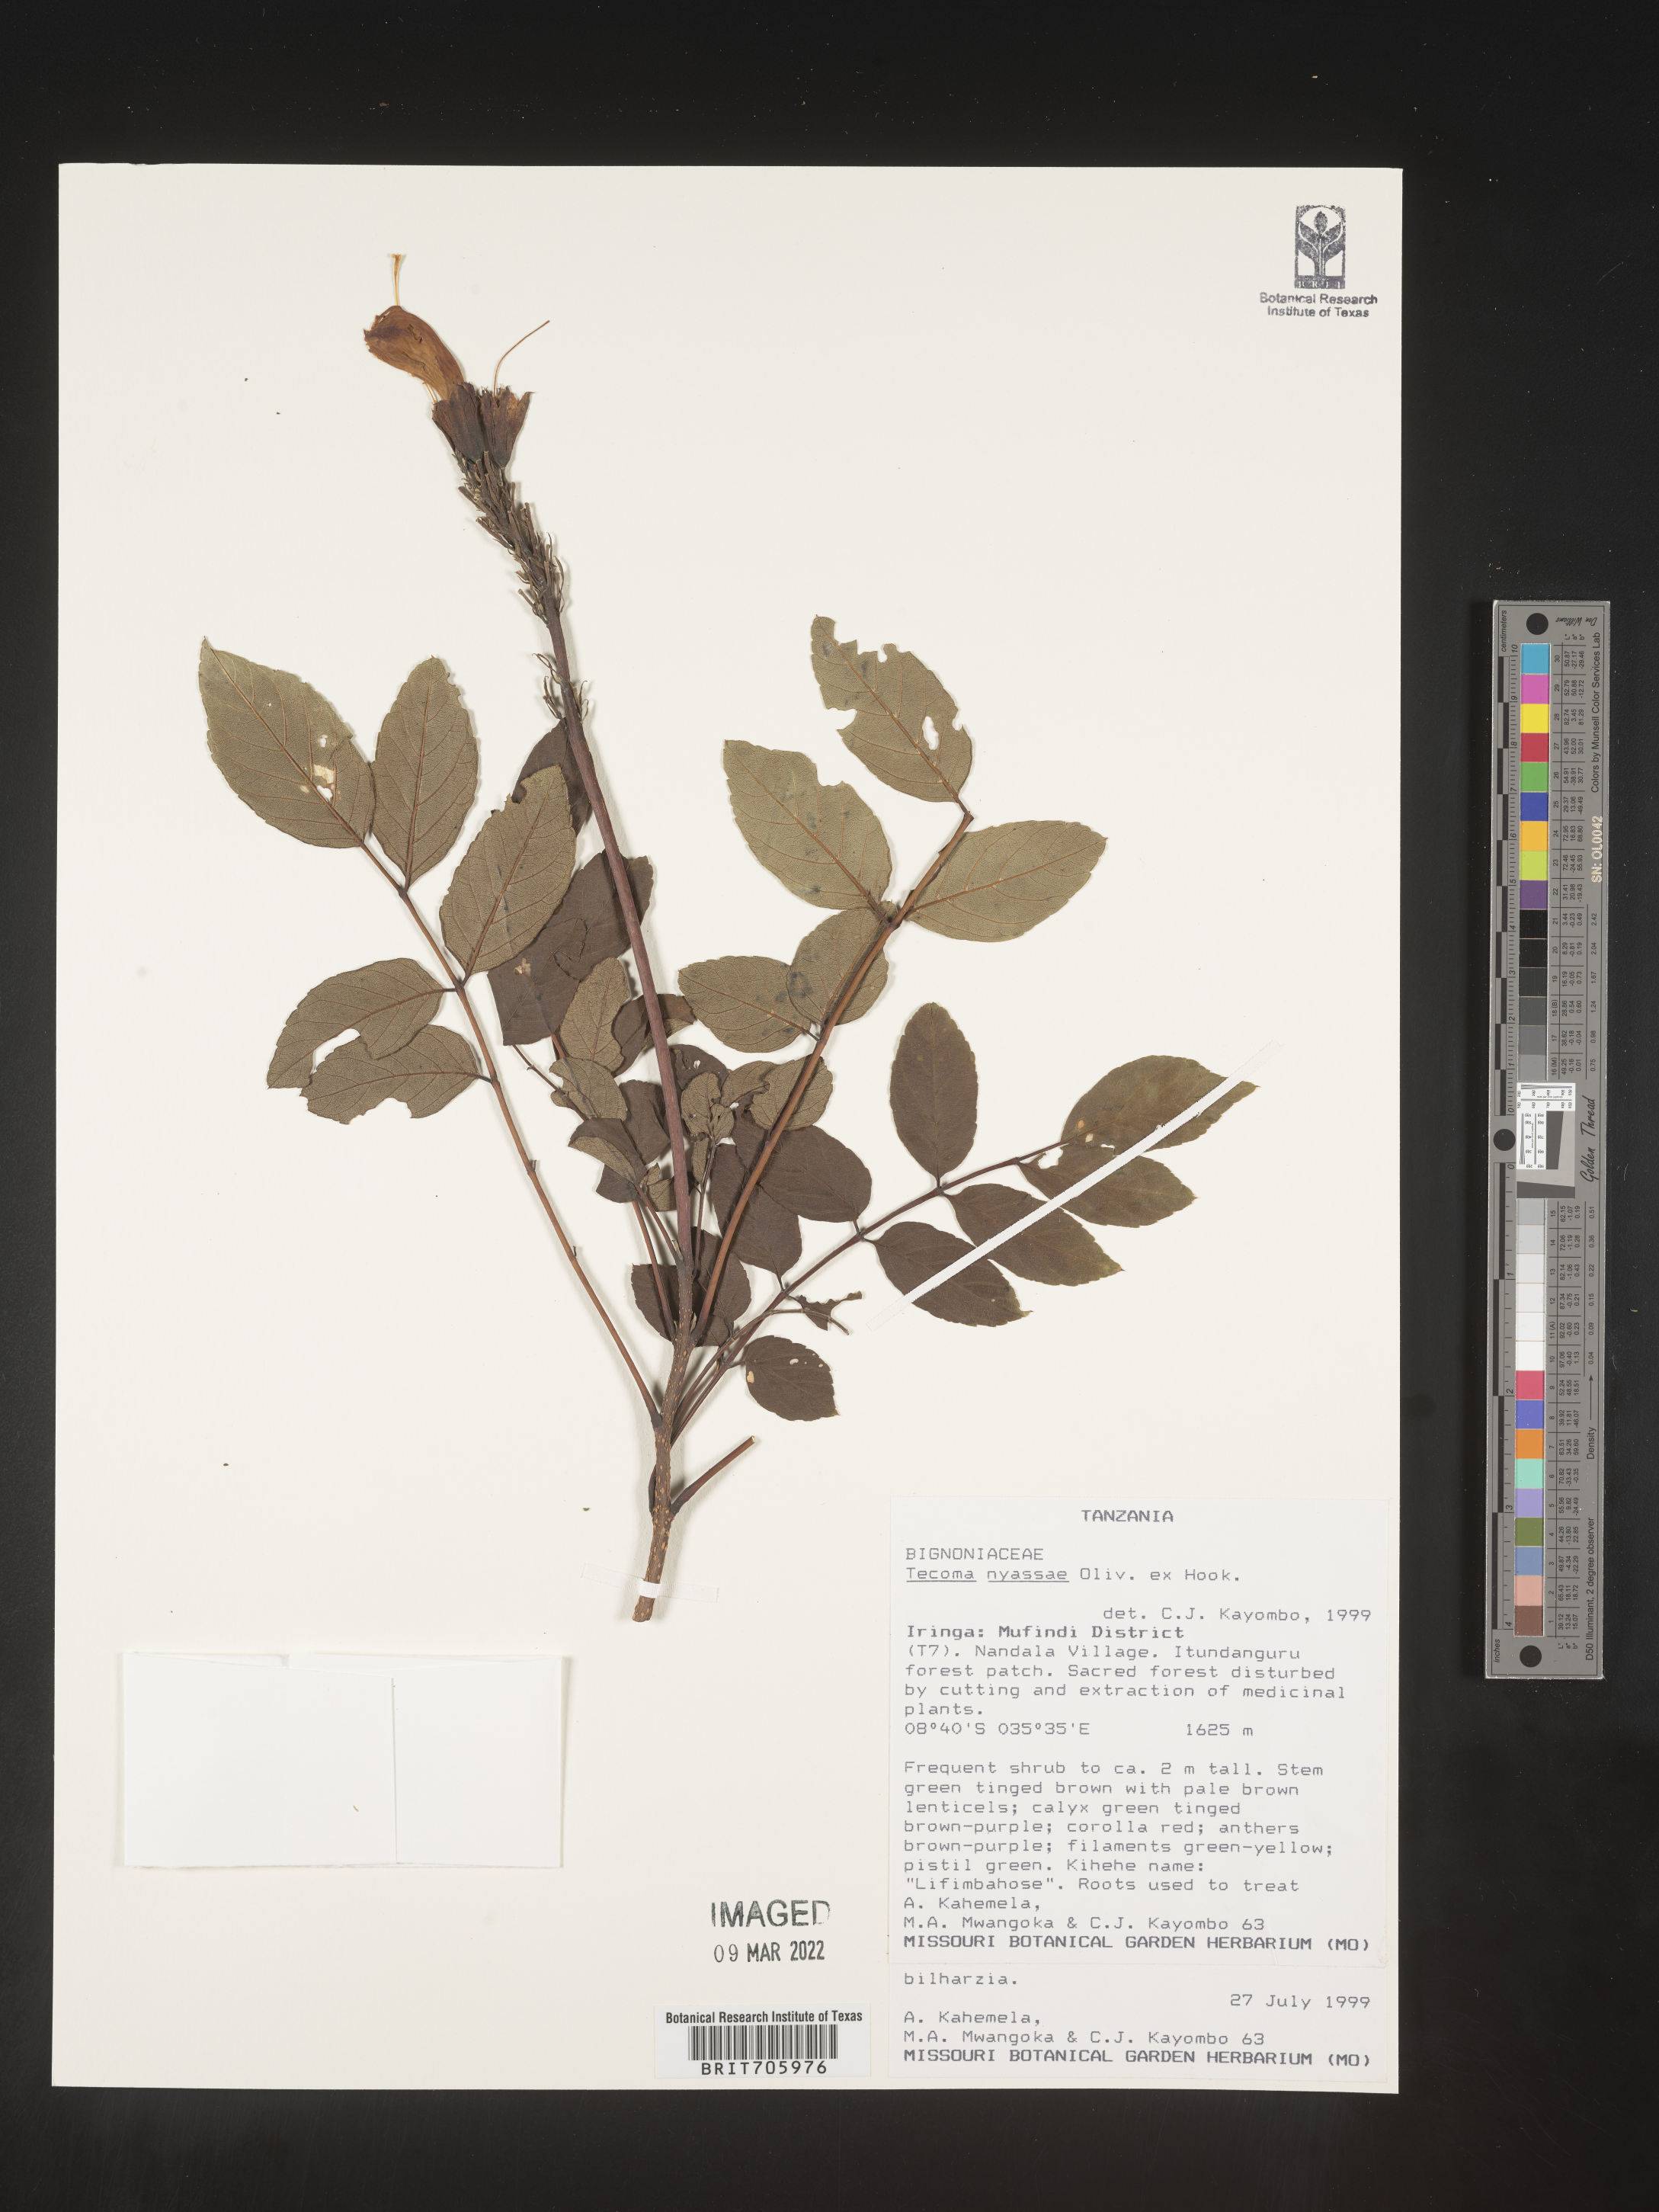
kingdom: Plantae
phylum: Tracheophyta
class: Magnoliopsida
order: Lamiales
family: Bignoniaceae
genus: Tecoma
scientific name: Tecoma
